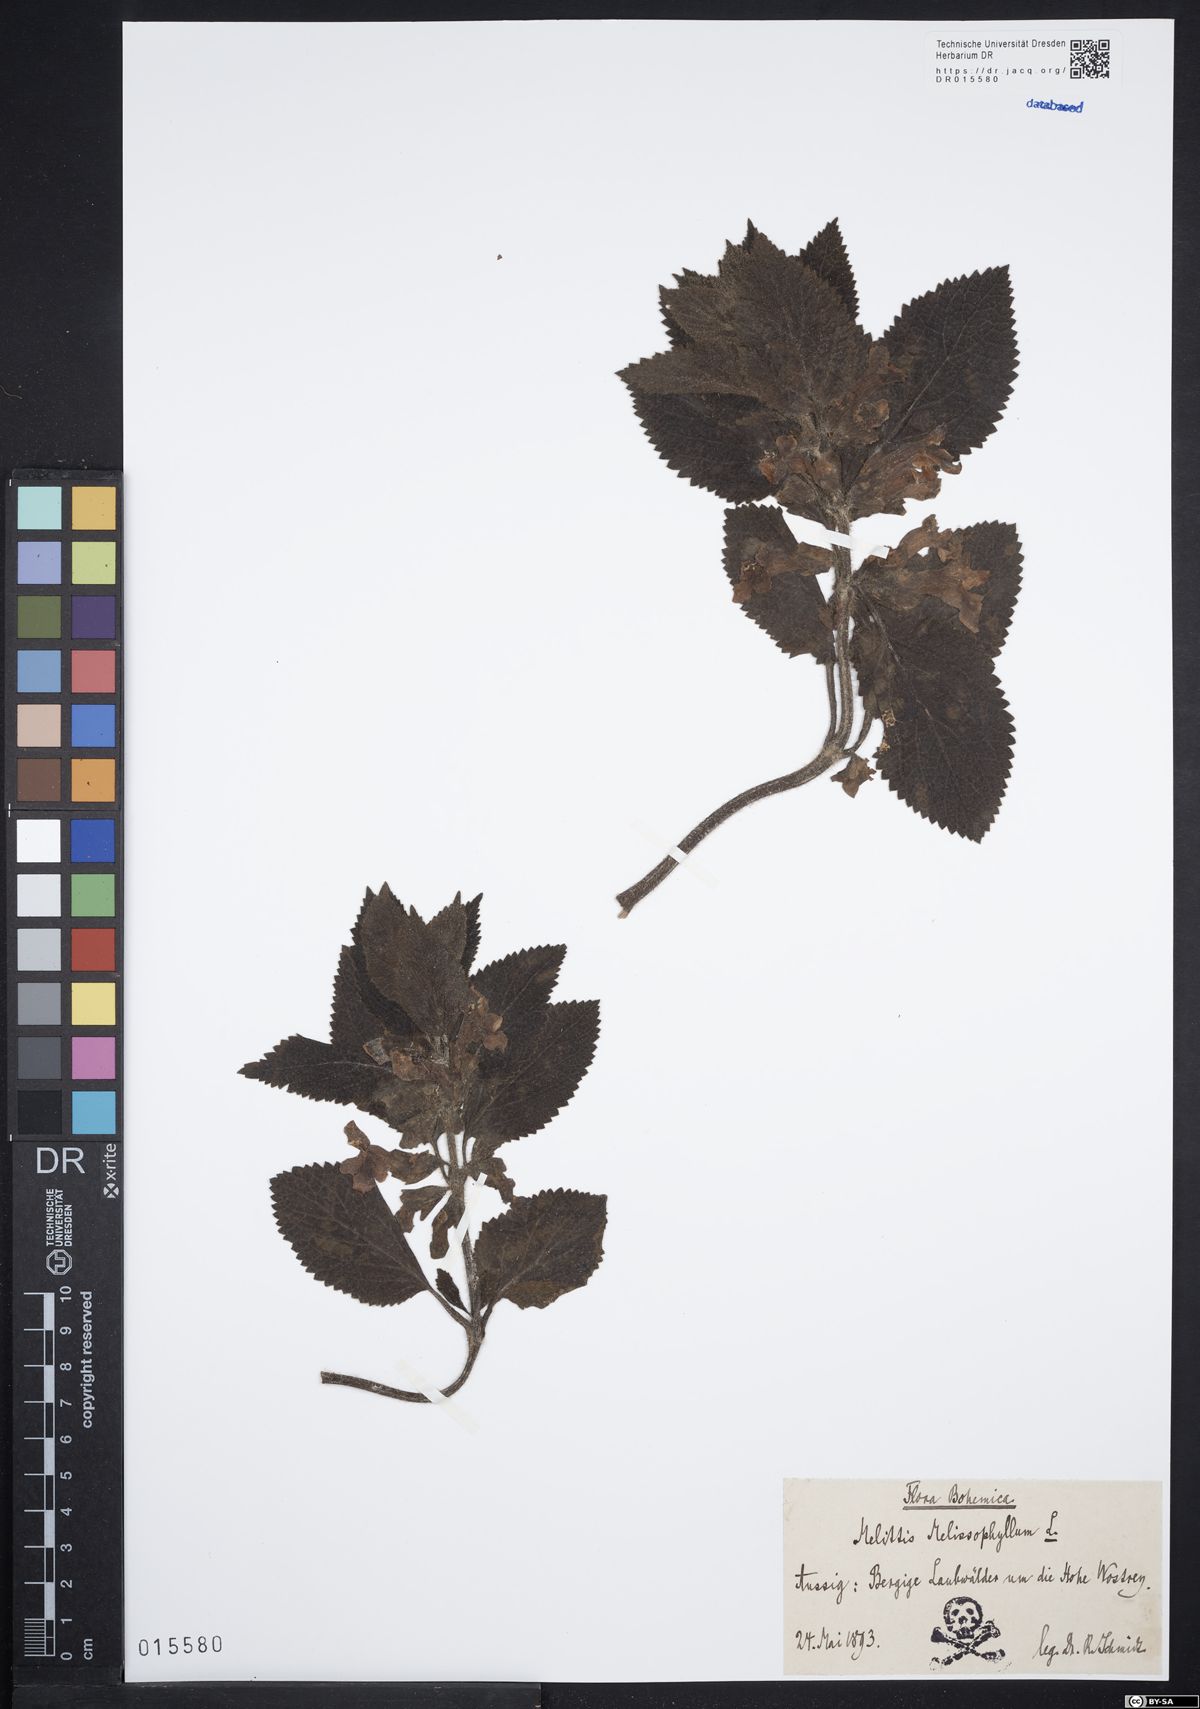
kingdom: Plantae
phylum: Tracheophyta
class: Magnoliopsida
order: Lamiales
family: Lamiaceae
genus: Melittis
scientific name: Melittis melissophyllum
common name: Bastard balm
